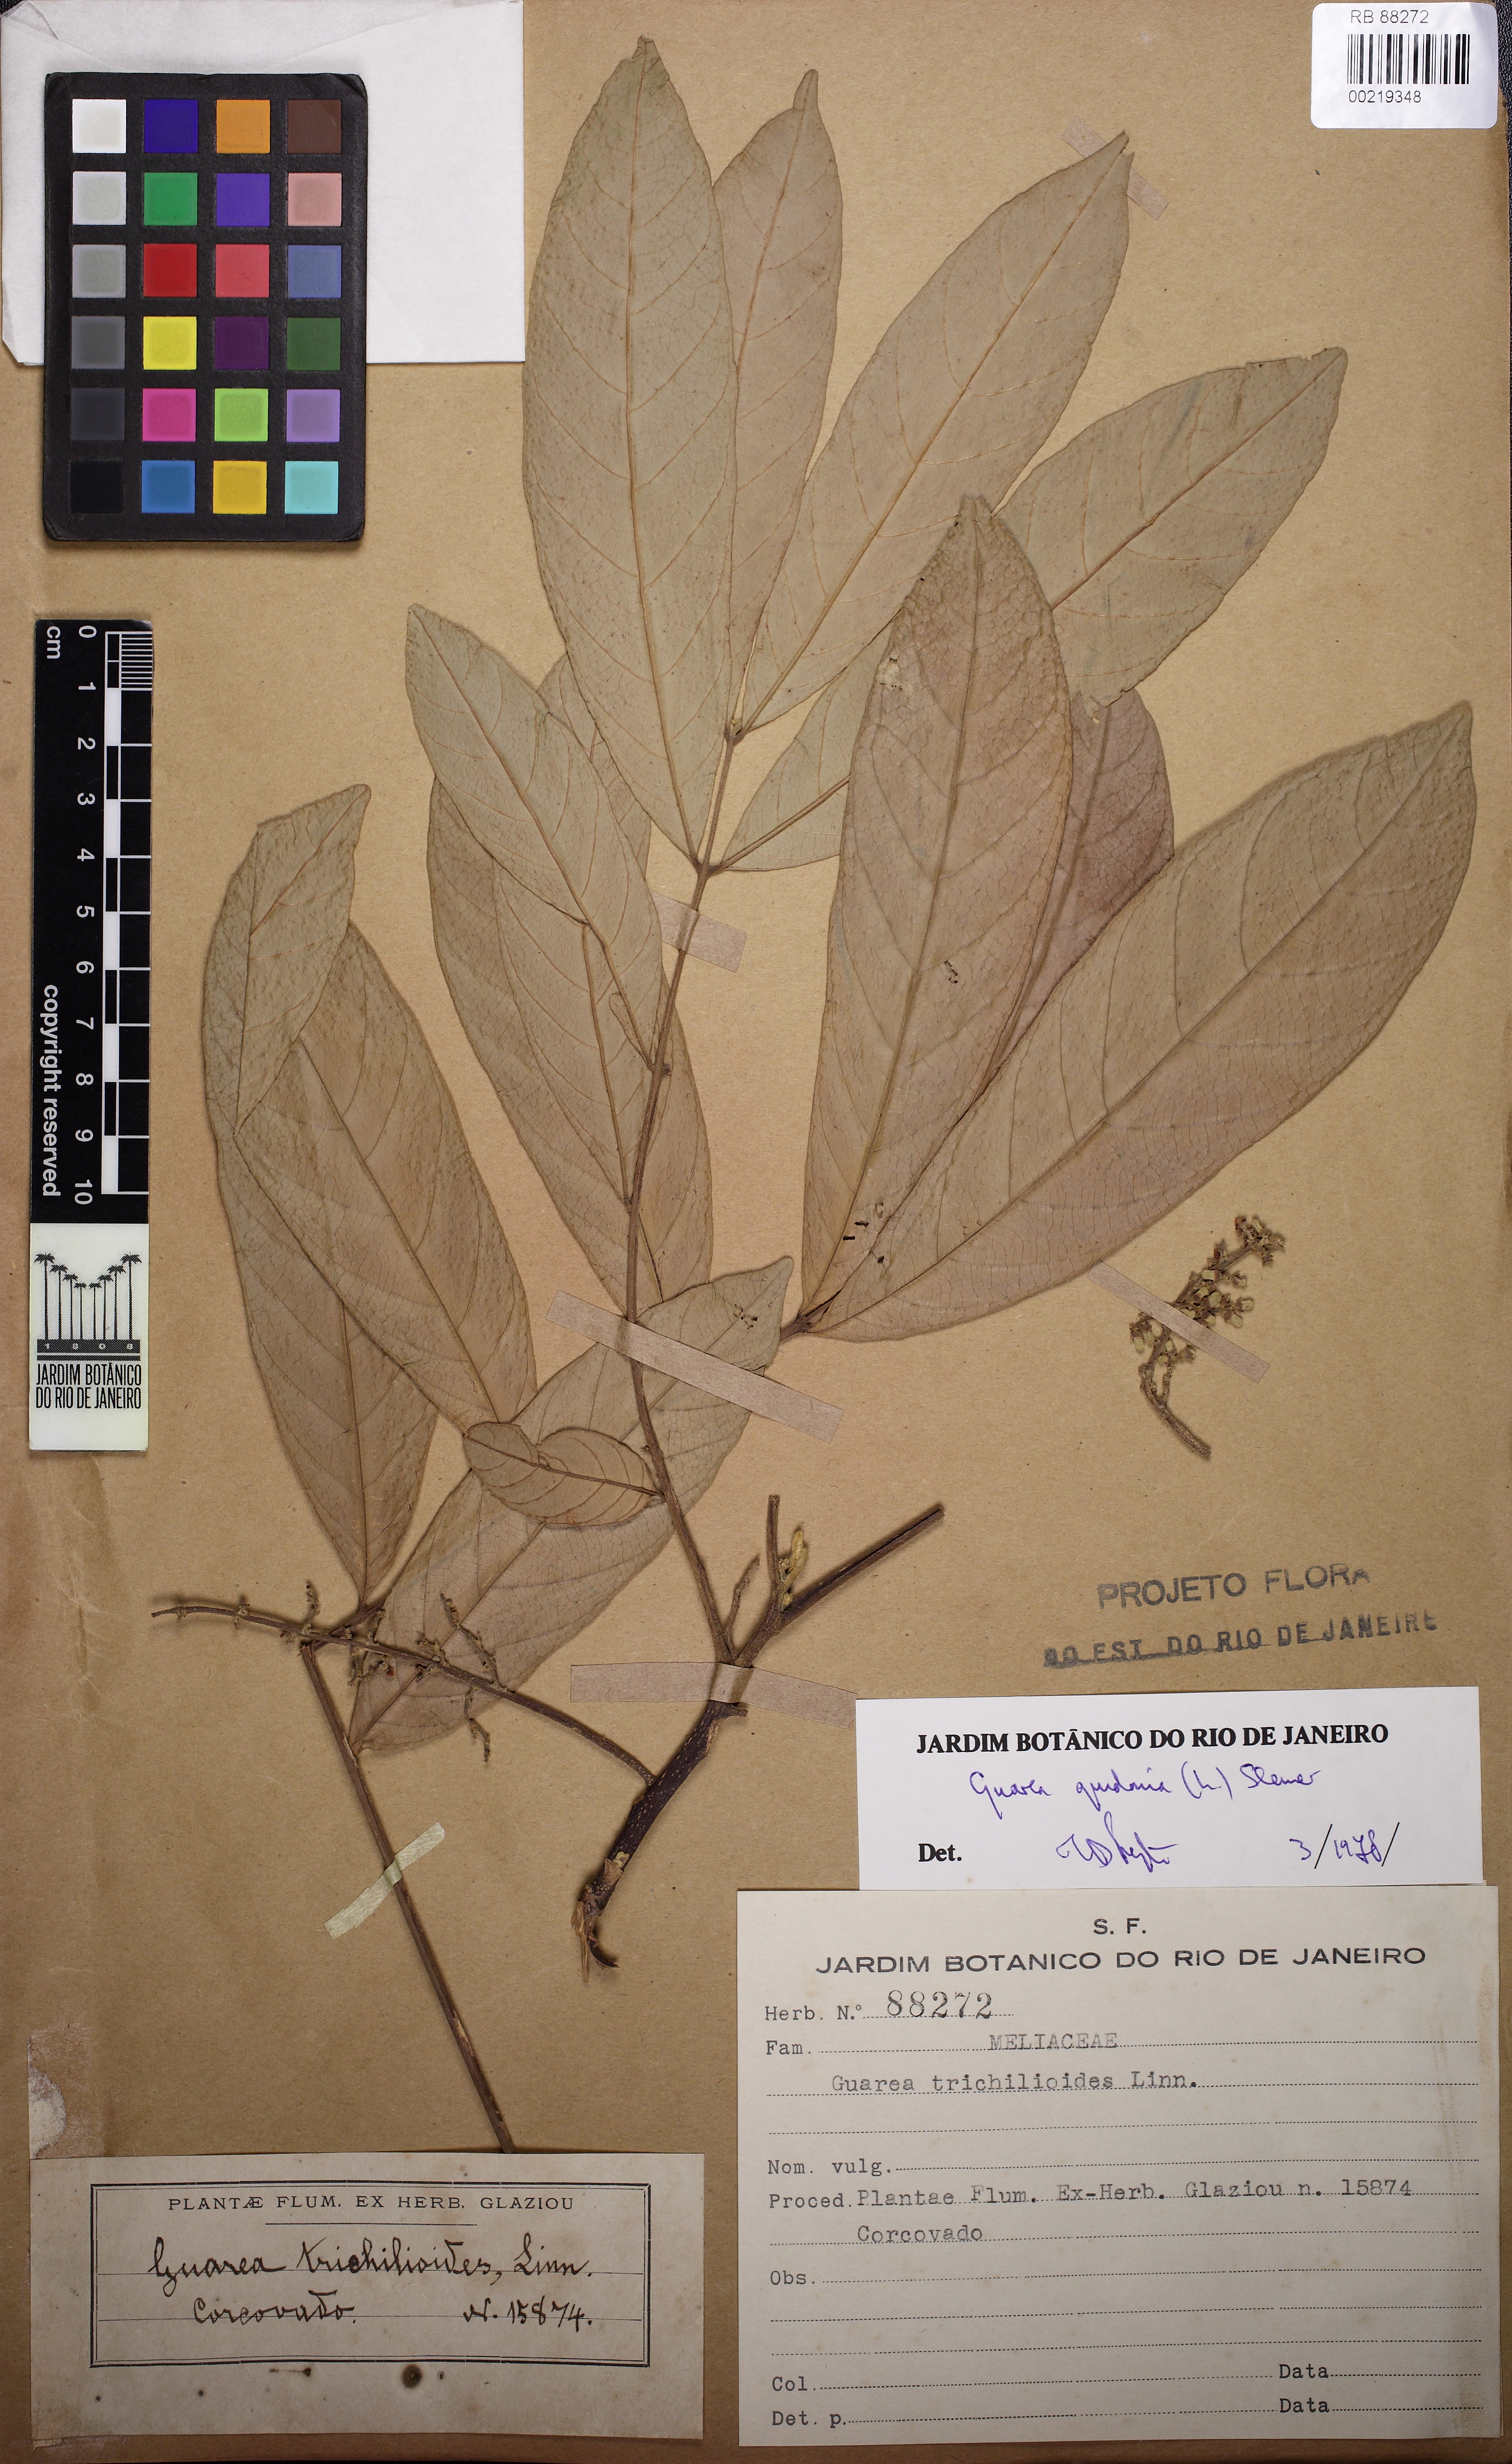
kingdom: Plantae
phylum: Tracheophyta
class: Magnoliopsida
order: Sapindales
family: Meliaceae
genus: Guarea
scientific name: Guarea guidonia
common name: American muskwood
